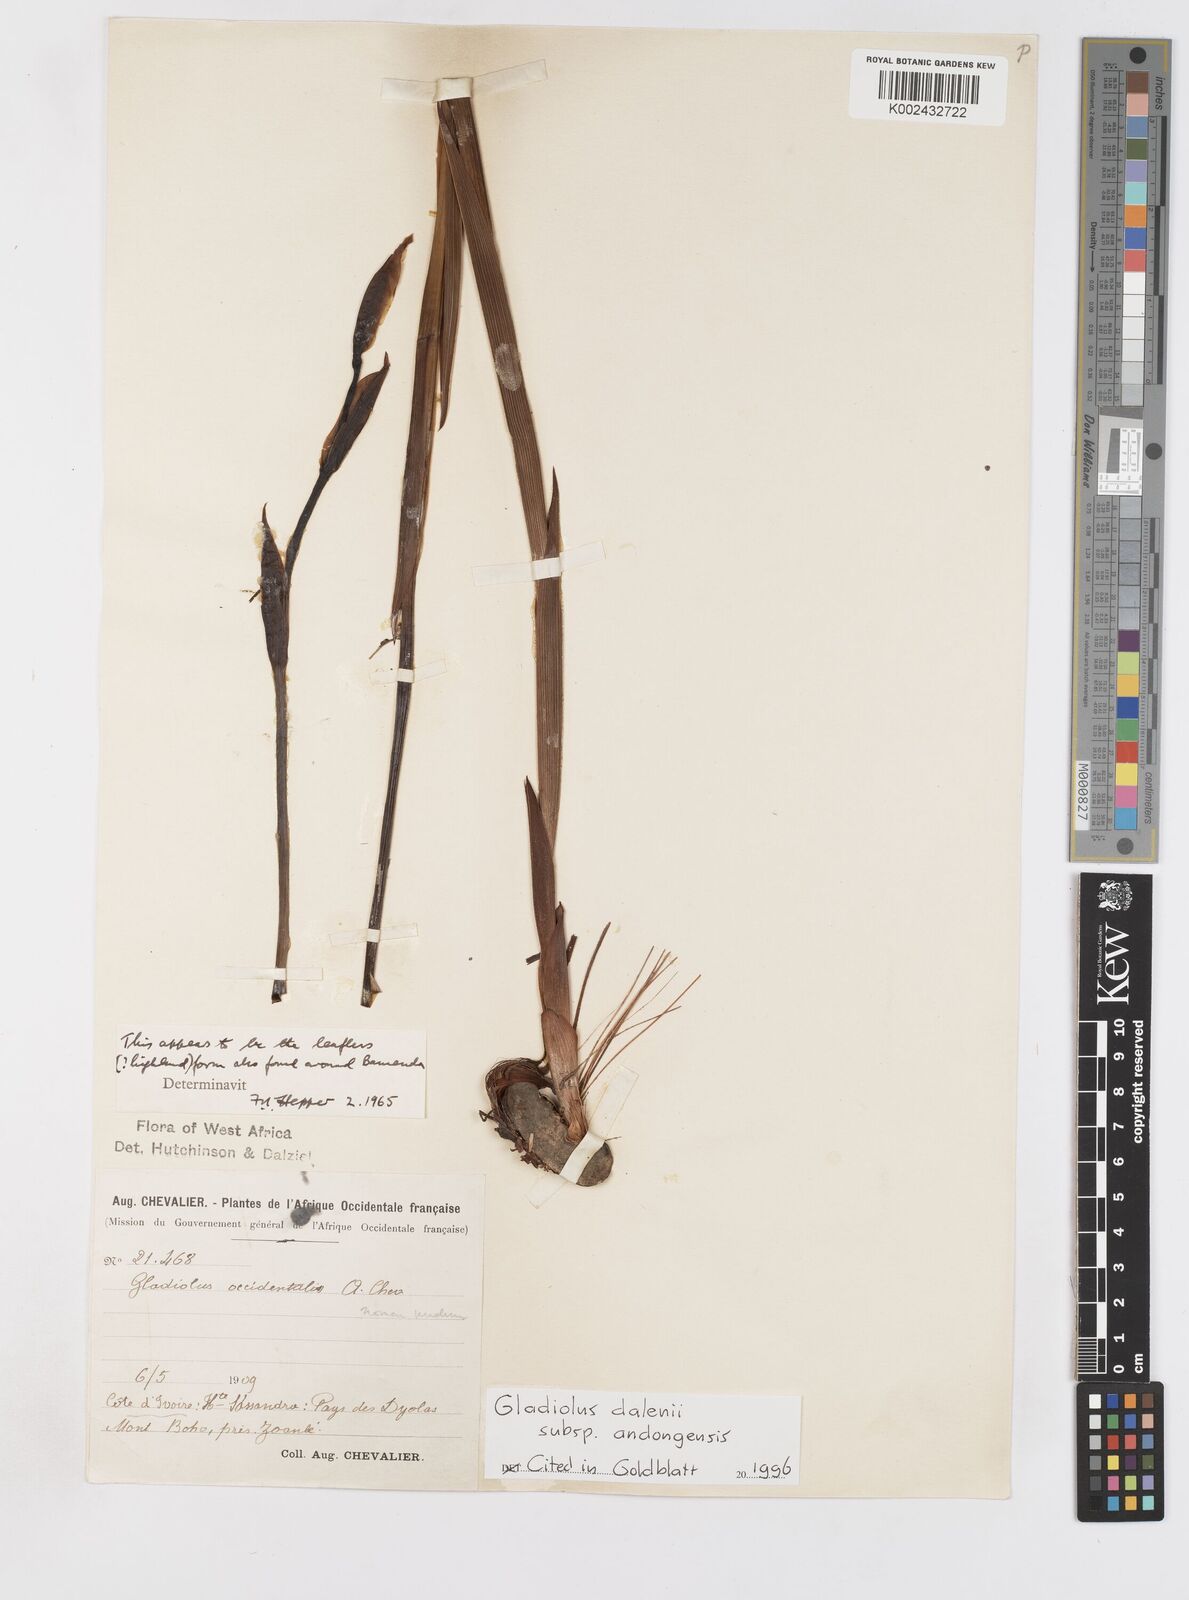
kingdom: Plantae
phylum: Tracheophyta
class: Liliopsida
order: Asparagales
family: Iridaceae
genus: Gladiolus
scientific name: Gladiolus dalenii
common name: Cornflag
